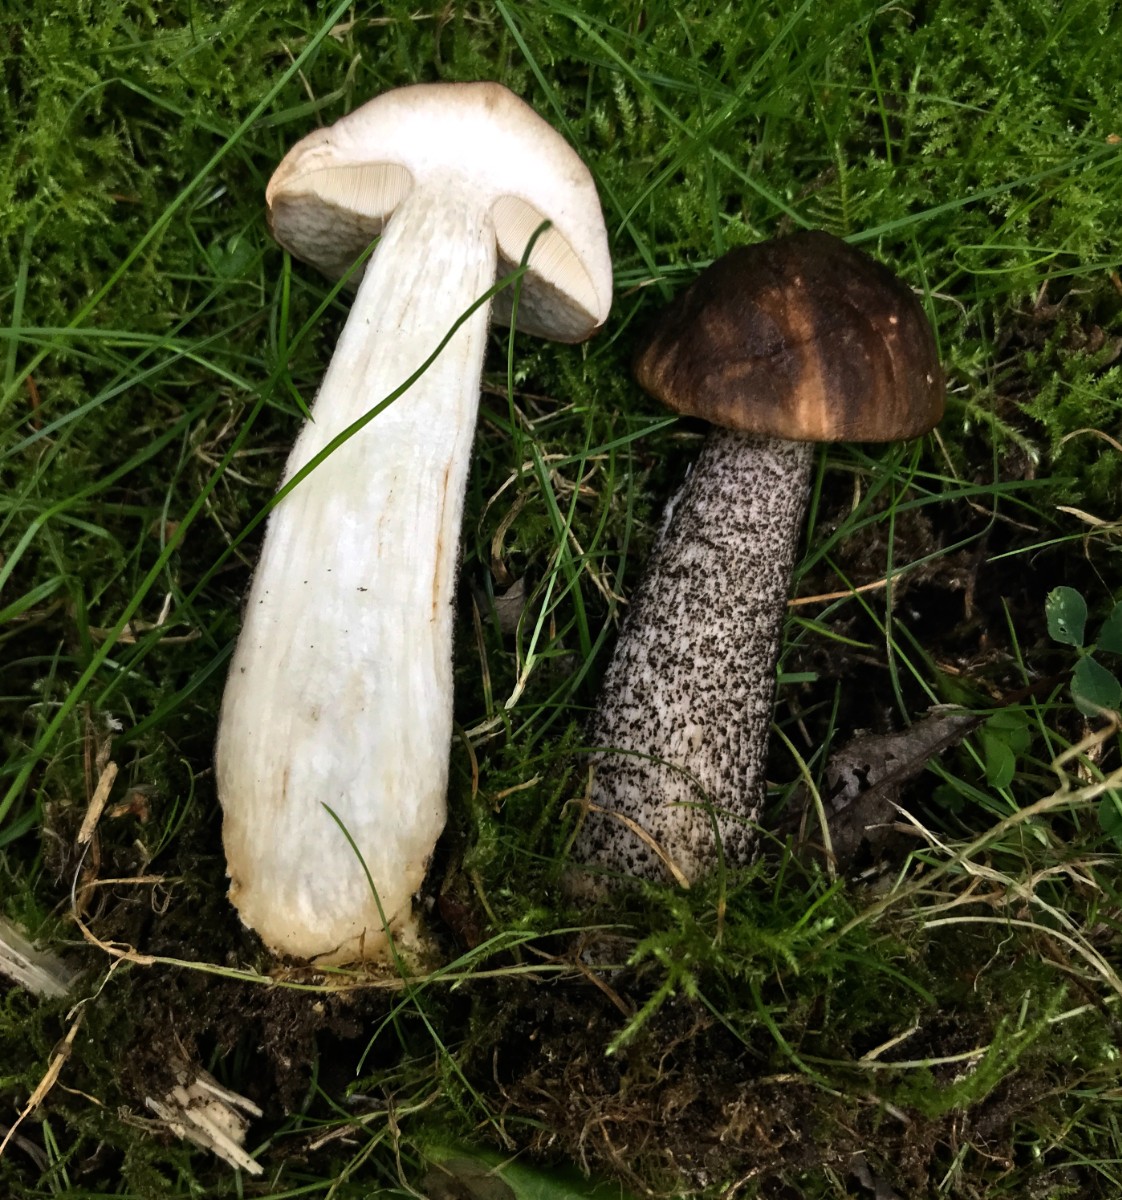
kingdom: Fungi
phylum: Basidiomycota
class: Agaricomycetes
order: Boletales
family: Boletaceae
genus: Leccinum
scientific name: Leccinum scabrum
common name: brun skælrørhat
